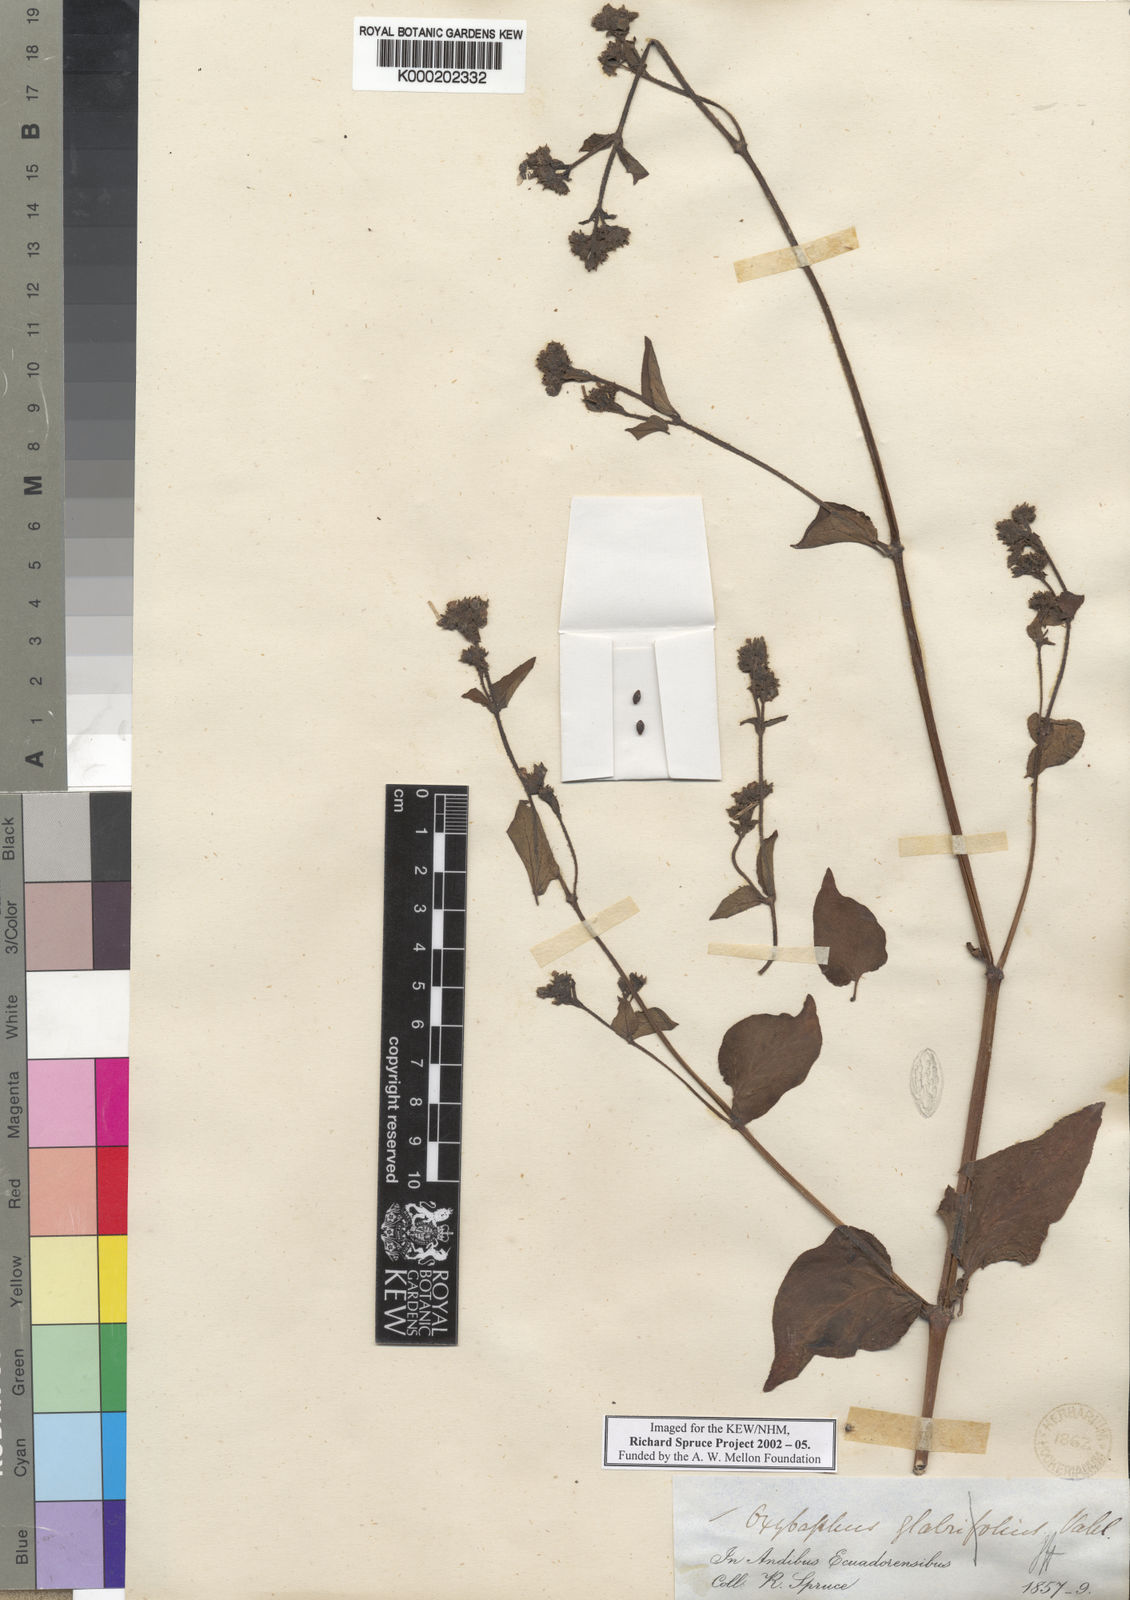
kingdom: Plantae
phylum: Tracheophyta
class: Magnoliopsida
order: Caryophyllales
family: Nyctaginaceae
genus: Mirabilis
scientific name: Mirabilis
